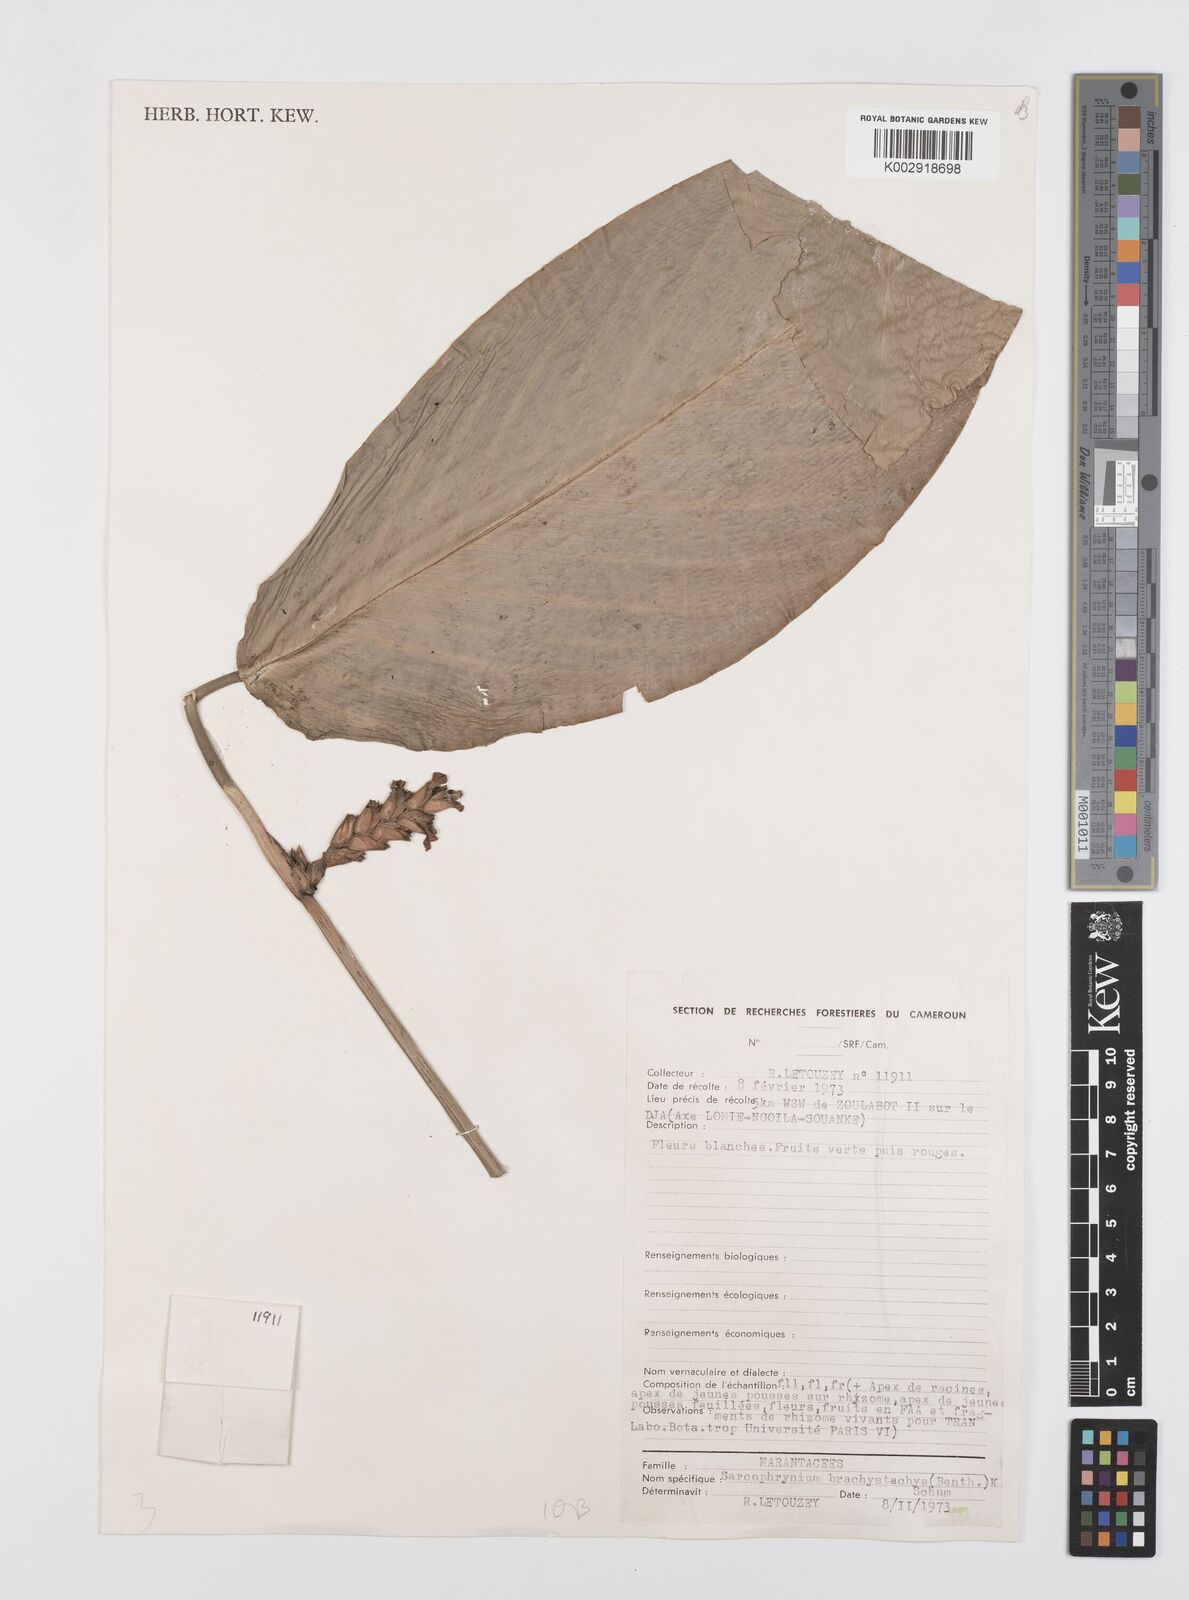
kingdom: Plantae
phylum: Tracheophyta
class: Liliopsida
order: Zingiberales
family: Marantaceae
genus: Sarcophrynium
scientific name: Sarcophrynium brachystachyum
